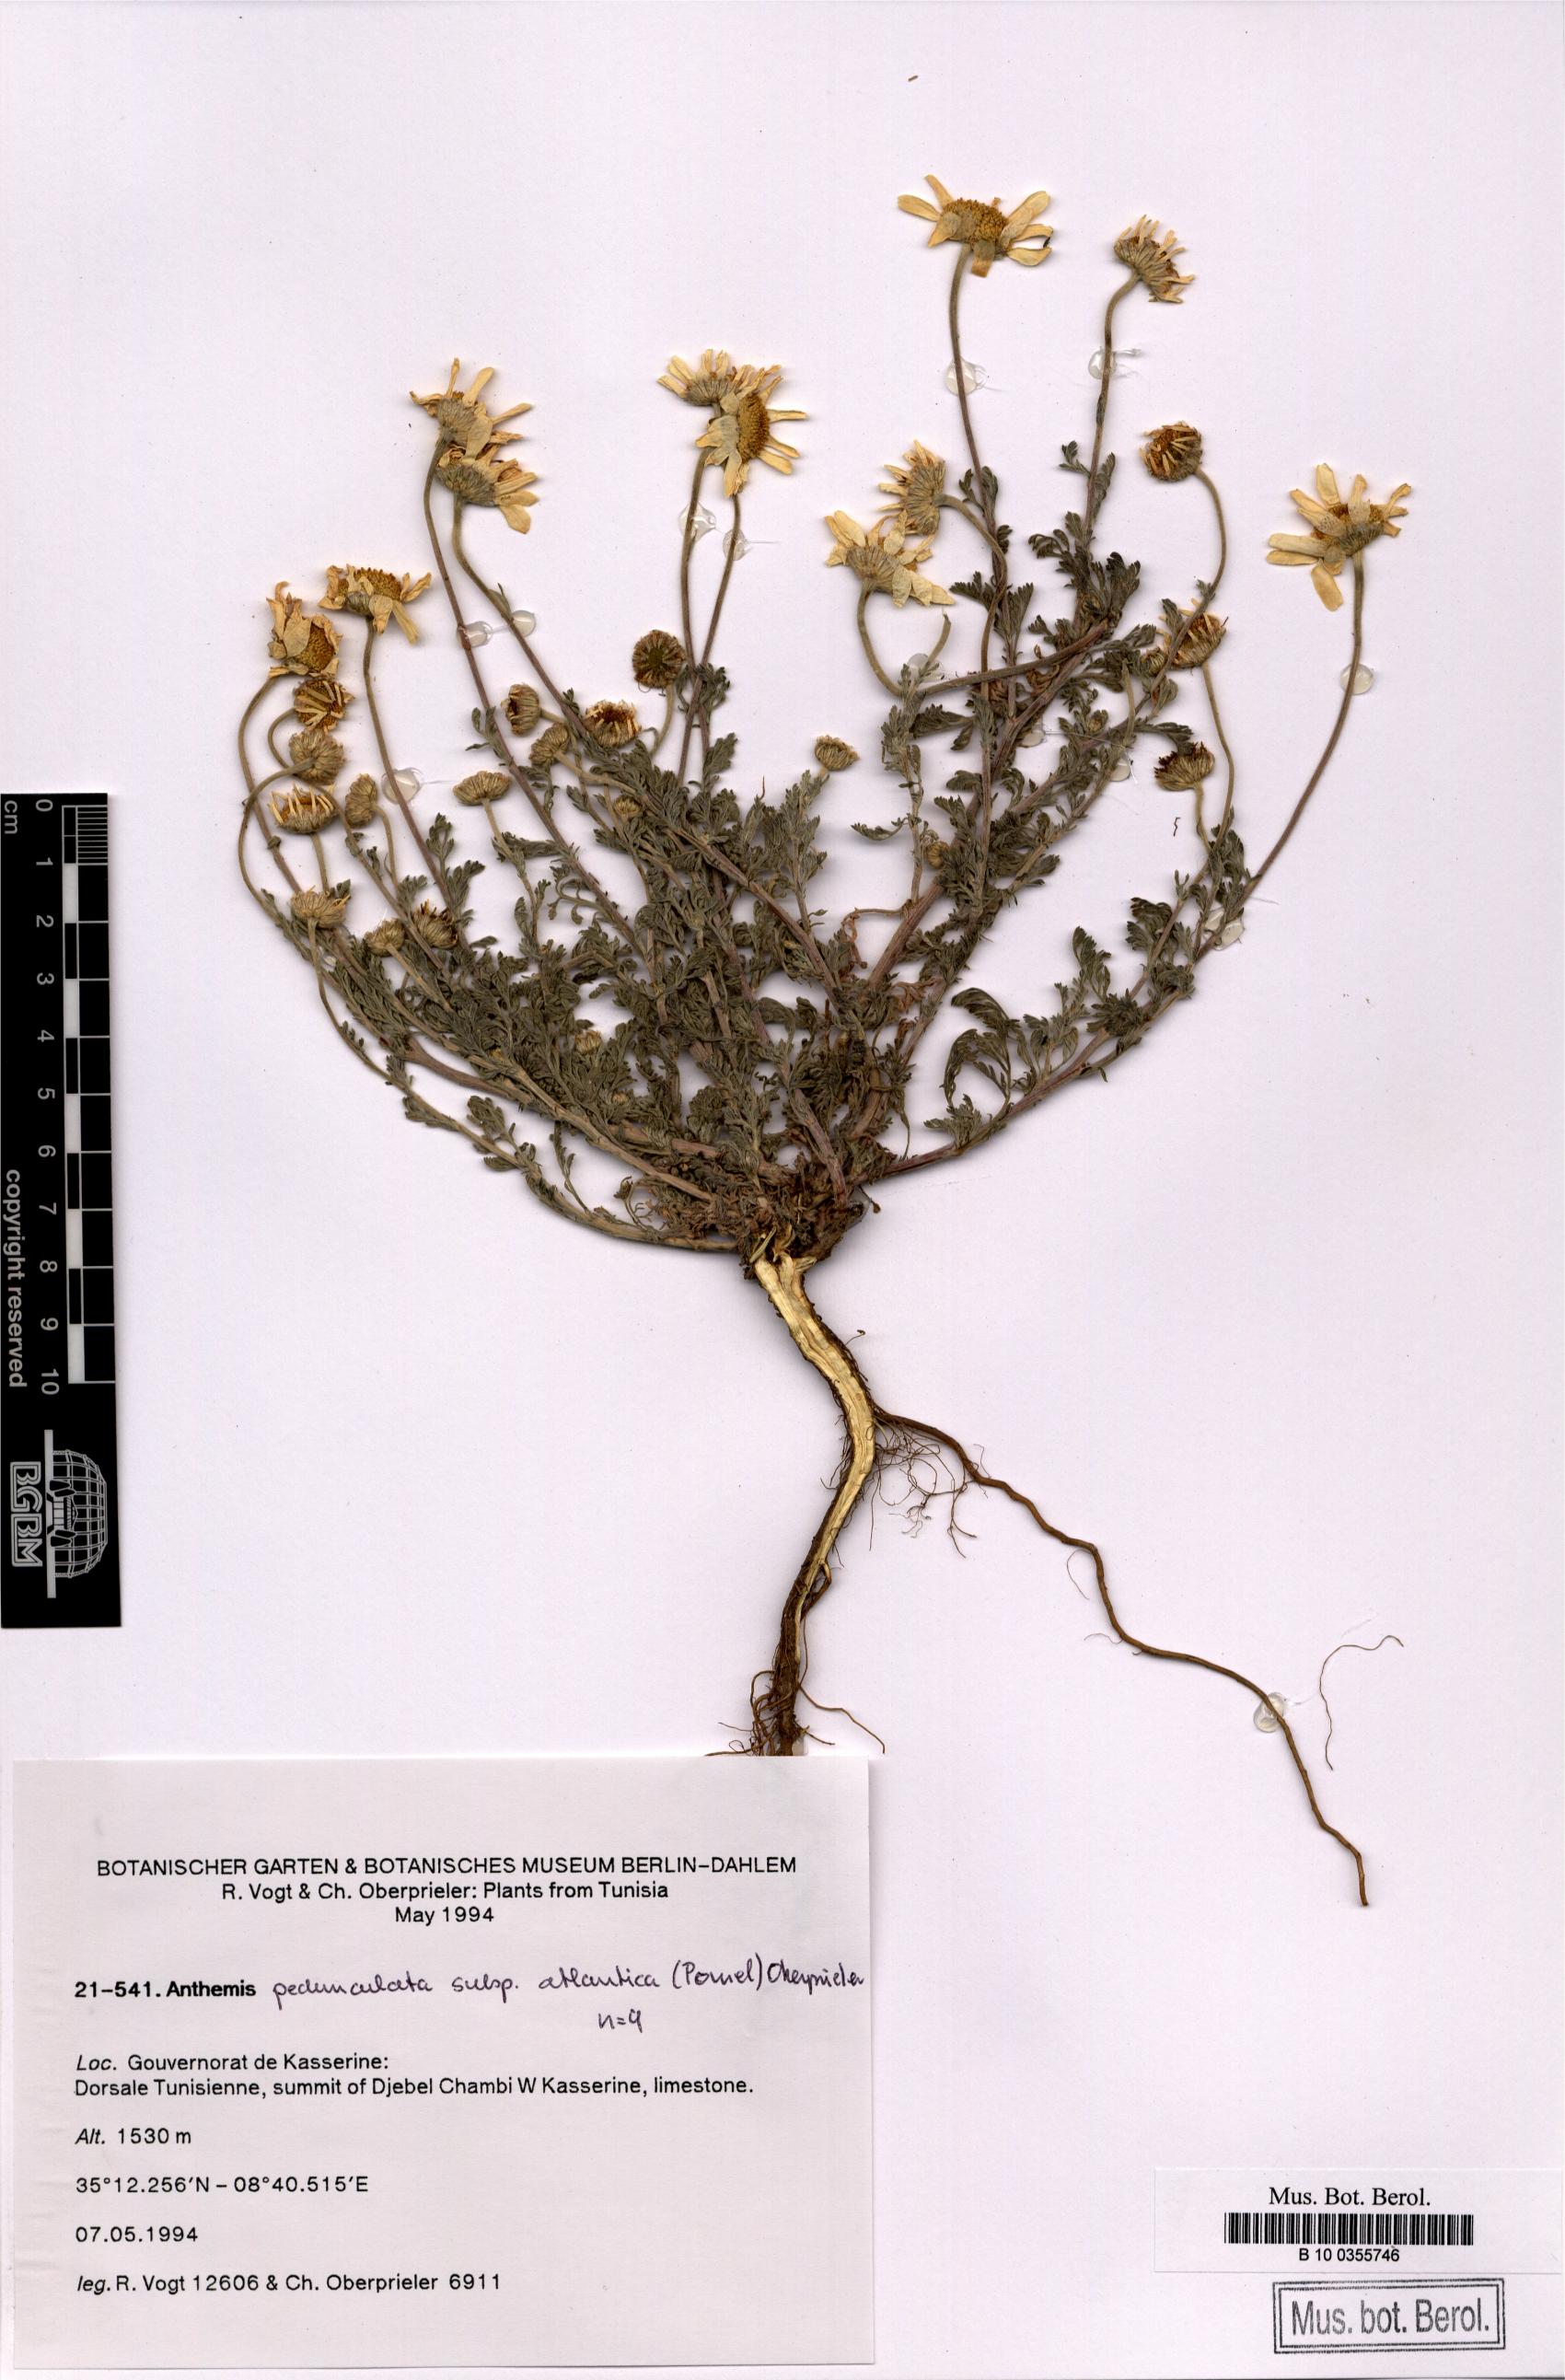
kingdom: Plantae
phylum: Tracheophyta
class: Magnoliopsida
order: Asterales
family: Asteraceae
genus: Anthemis
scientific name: Anthemis pedunculata
